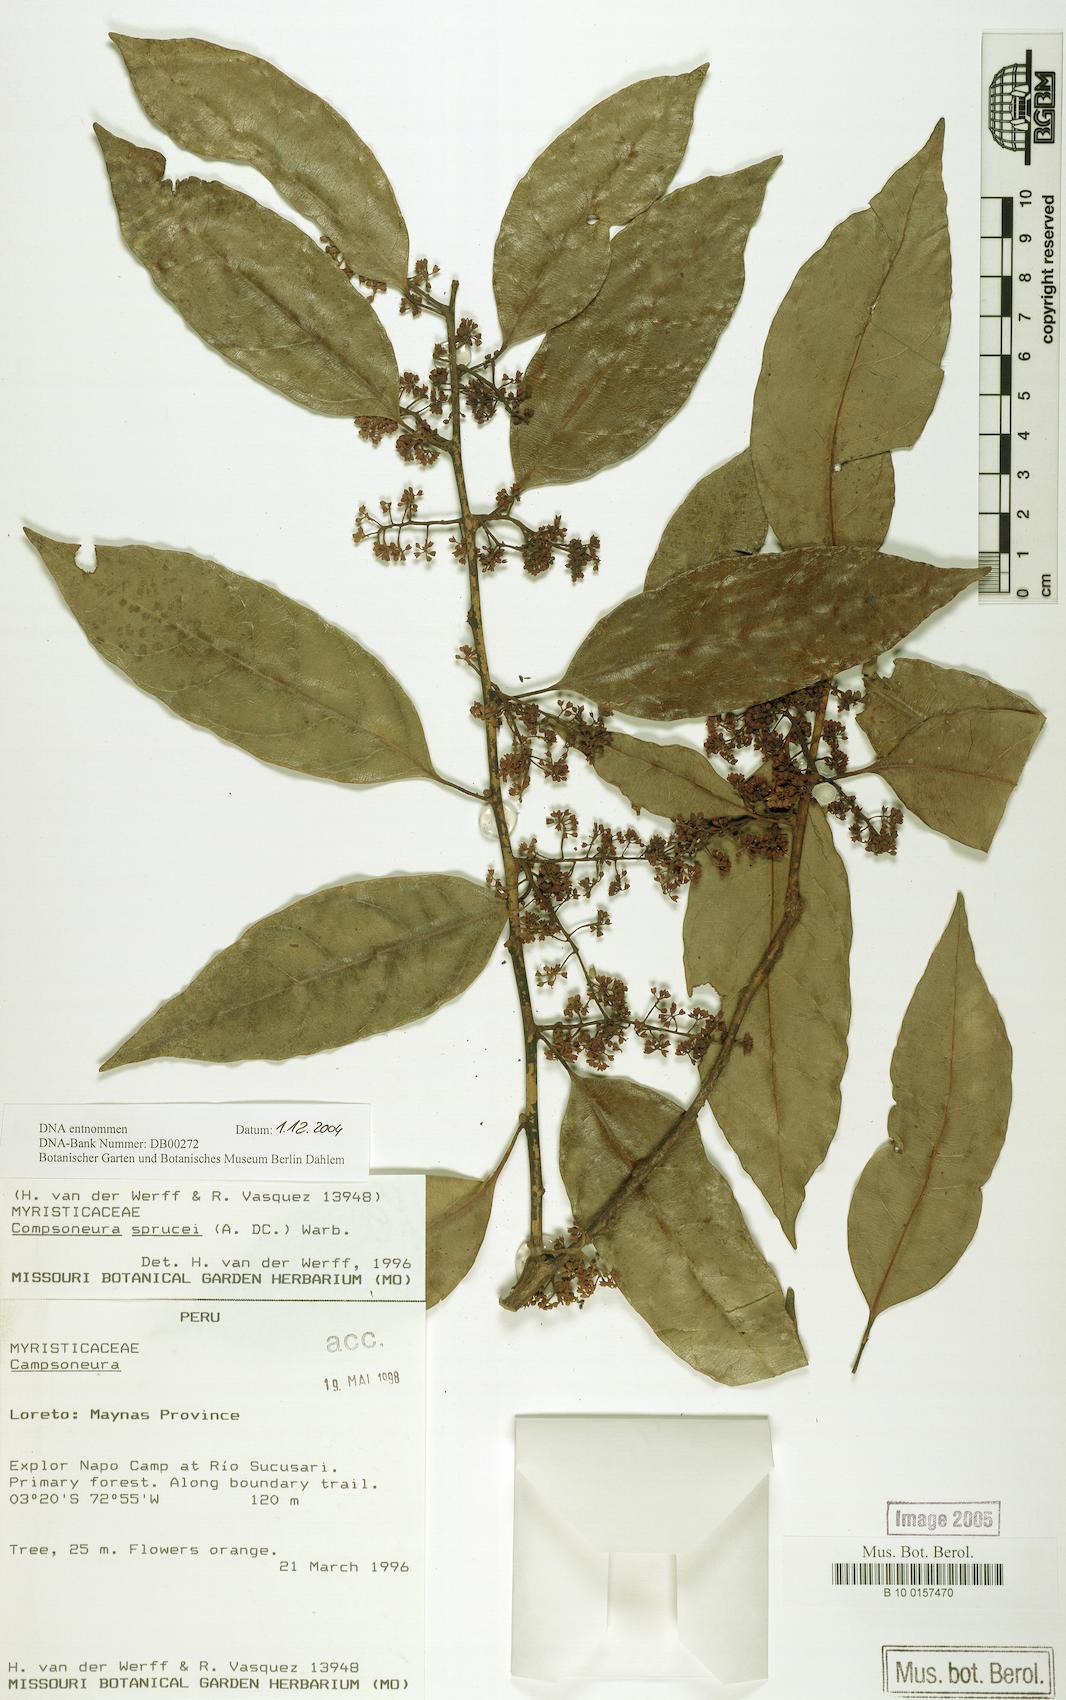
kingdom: Plantae
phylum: Tracheophyta
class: Magnoliopsida
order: Magnoliales
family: Myristicaceae
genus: Compsoneura
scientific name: Compsoneura sprucei
